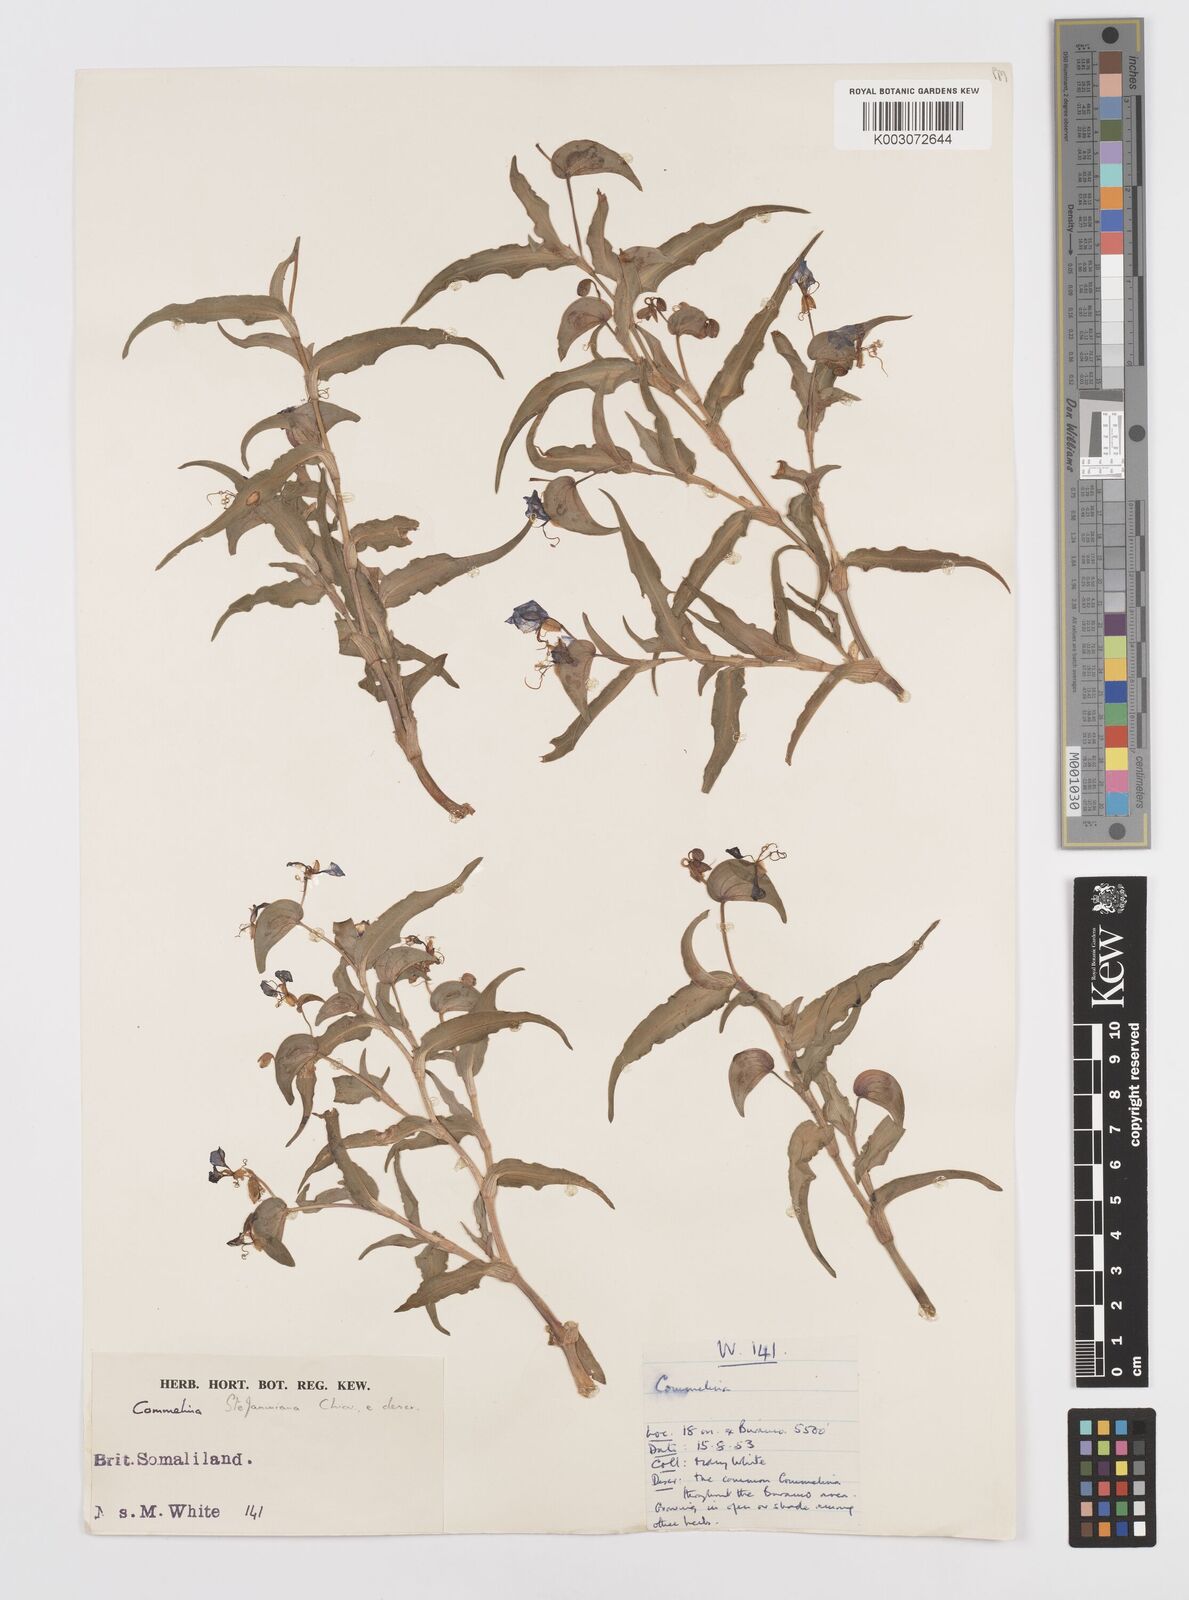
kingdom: Plantae
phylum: Tracheophyta
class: Liliopsida
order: Commelinales
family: Commelinaceae
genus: Commelina
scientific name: Commelina stefaniniana
